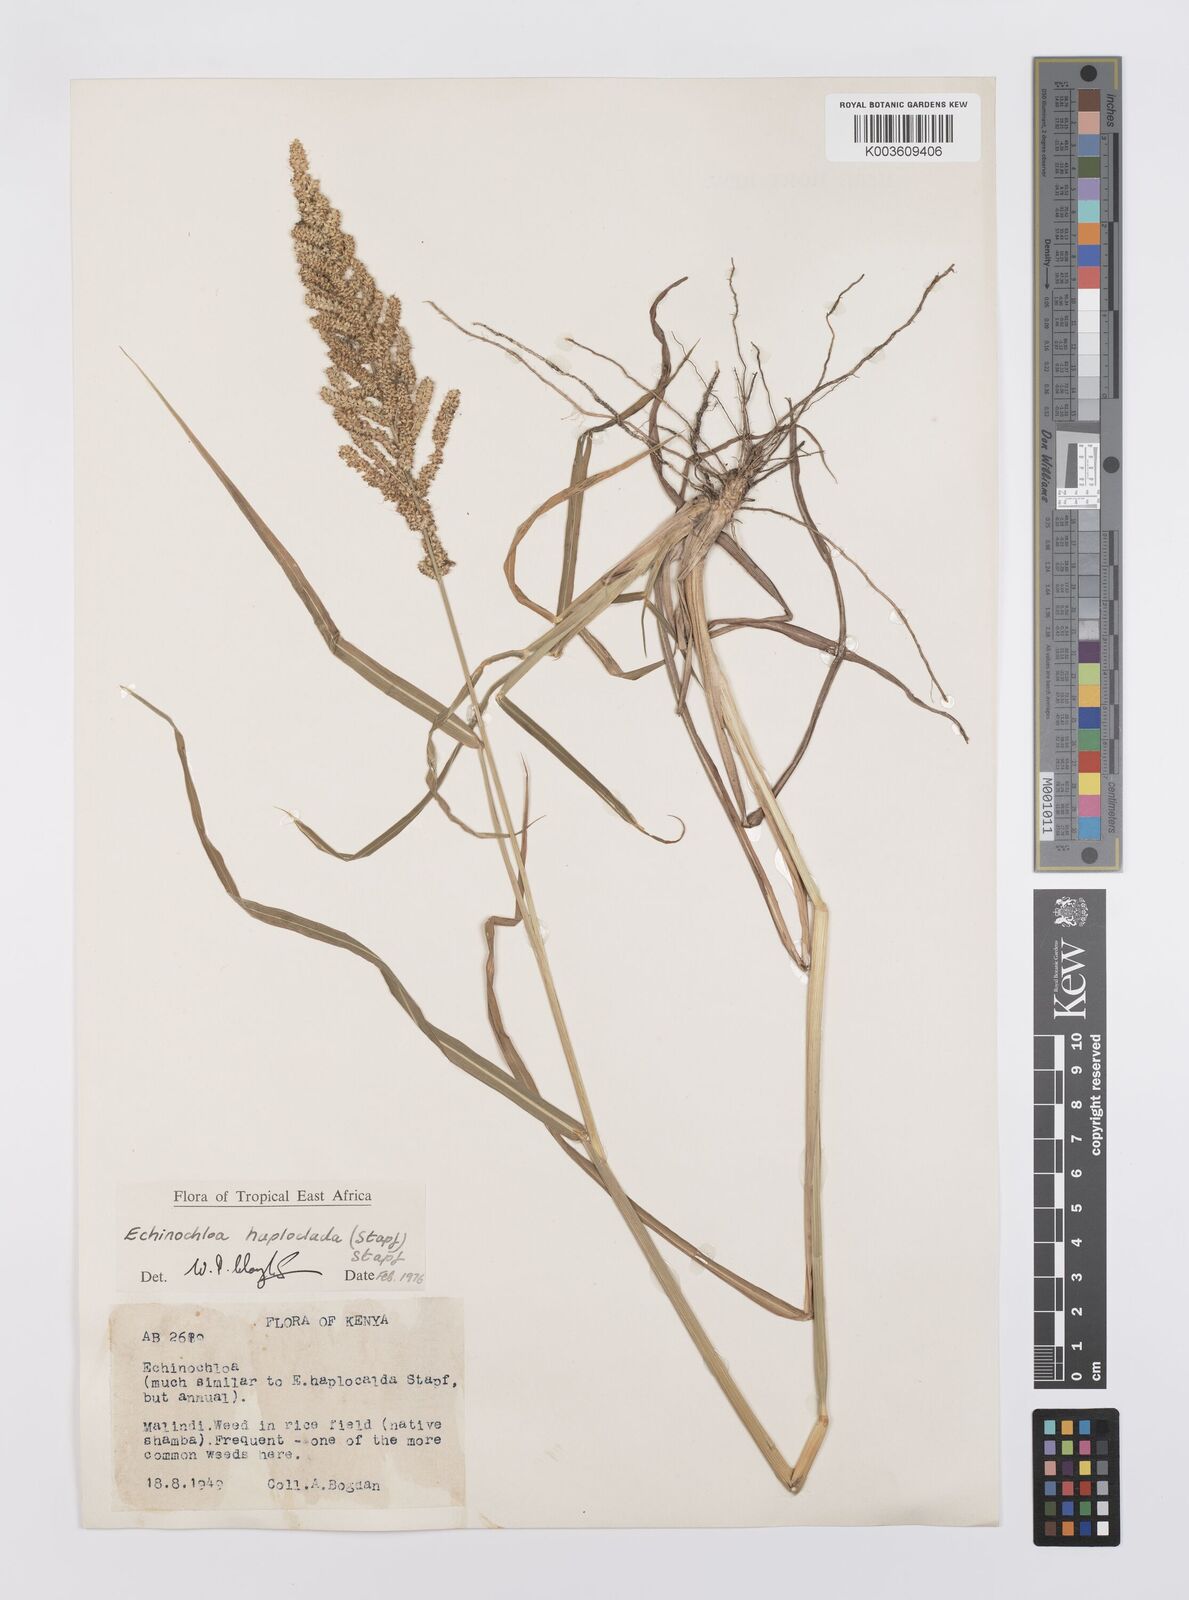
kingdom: Plantae
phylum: Tracheophyta
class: Liliopsida
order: Poales
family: Poaceae
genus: Echinochloa
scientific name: Echinochloa haploclada
